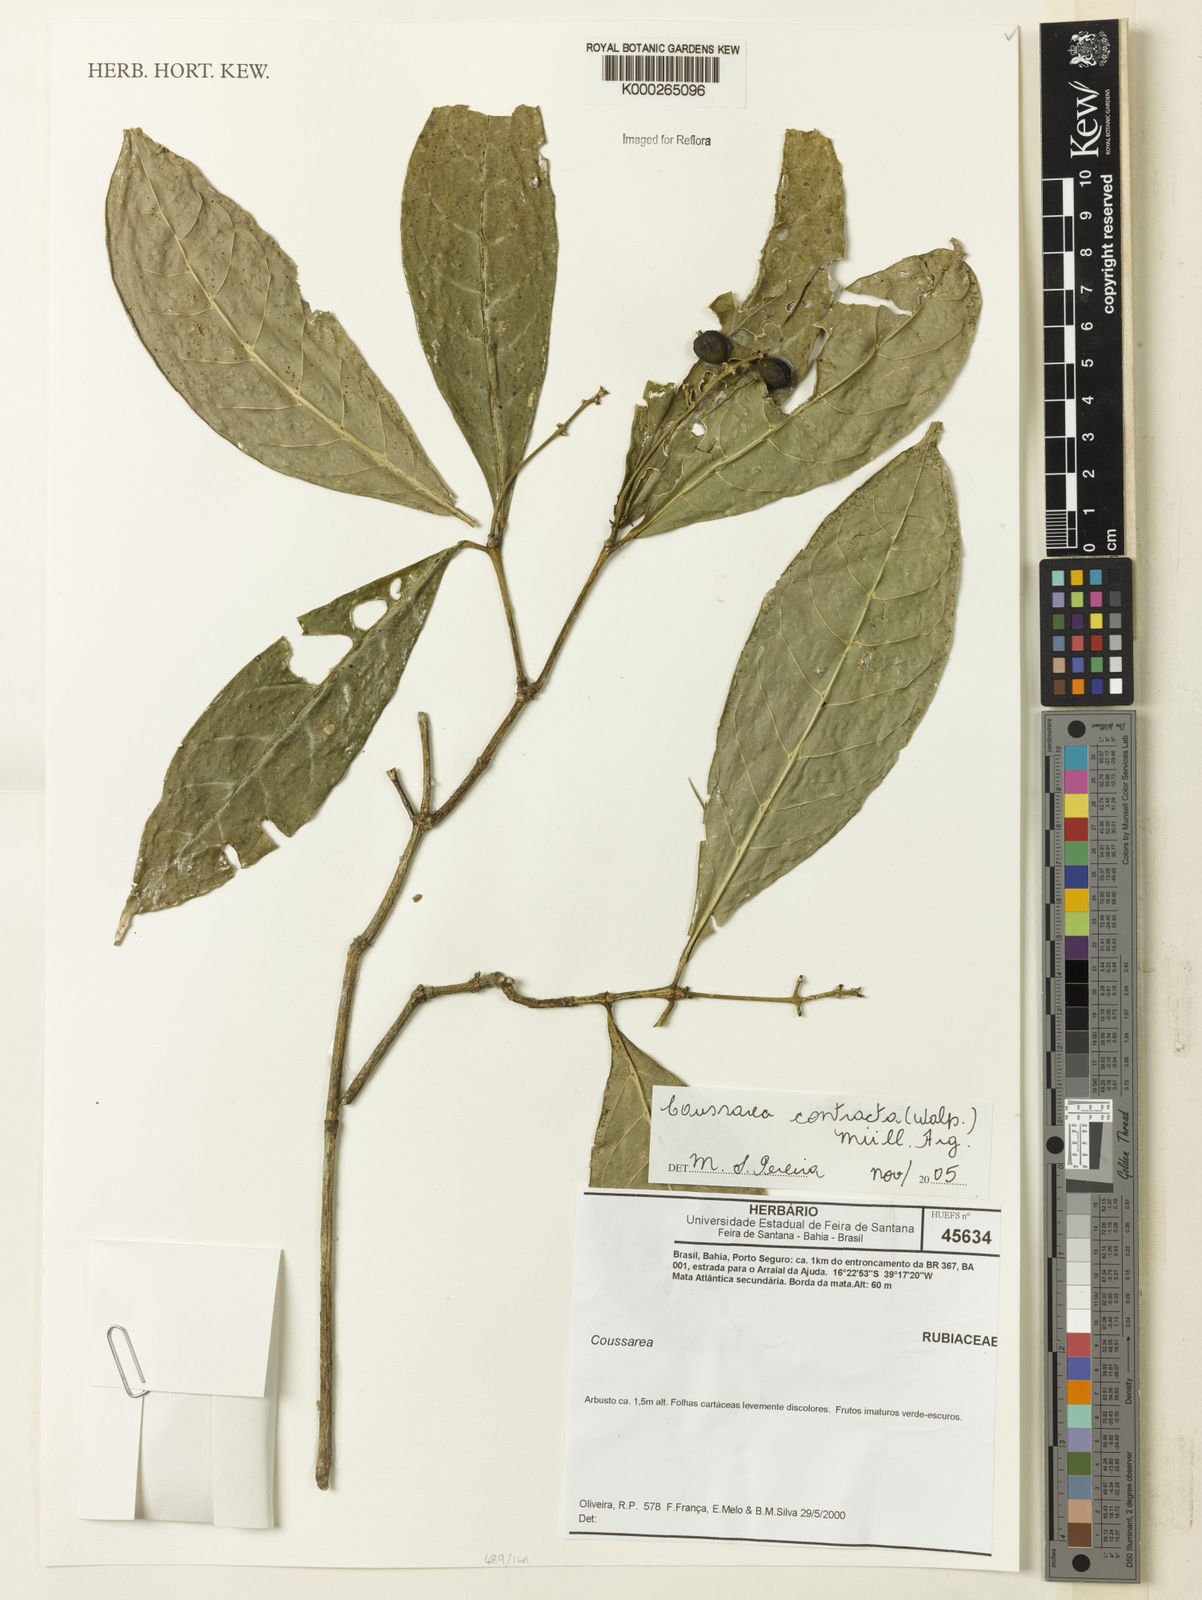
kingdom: Plantae
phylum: Tracheophyta
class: Magnoliopsida
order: Gentianales
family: Rubiaceae
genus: Coussarea
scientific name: Coussarea
